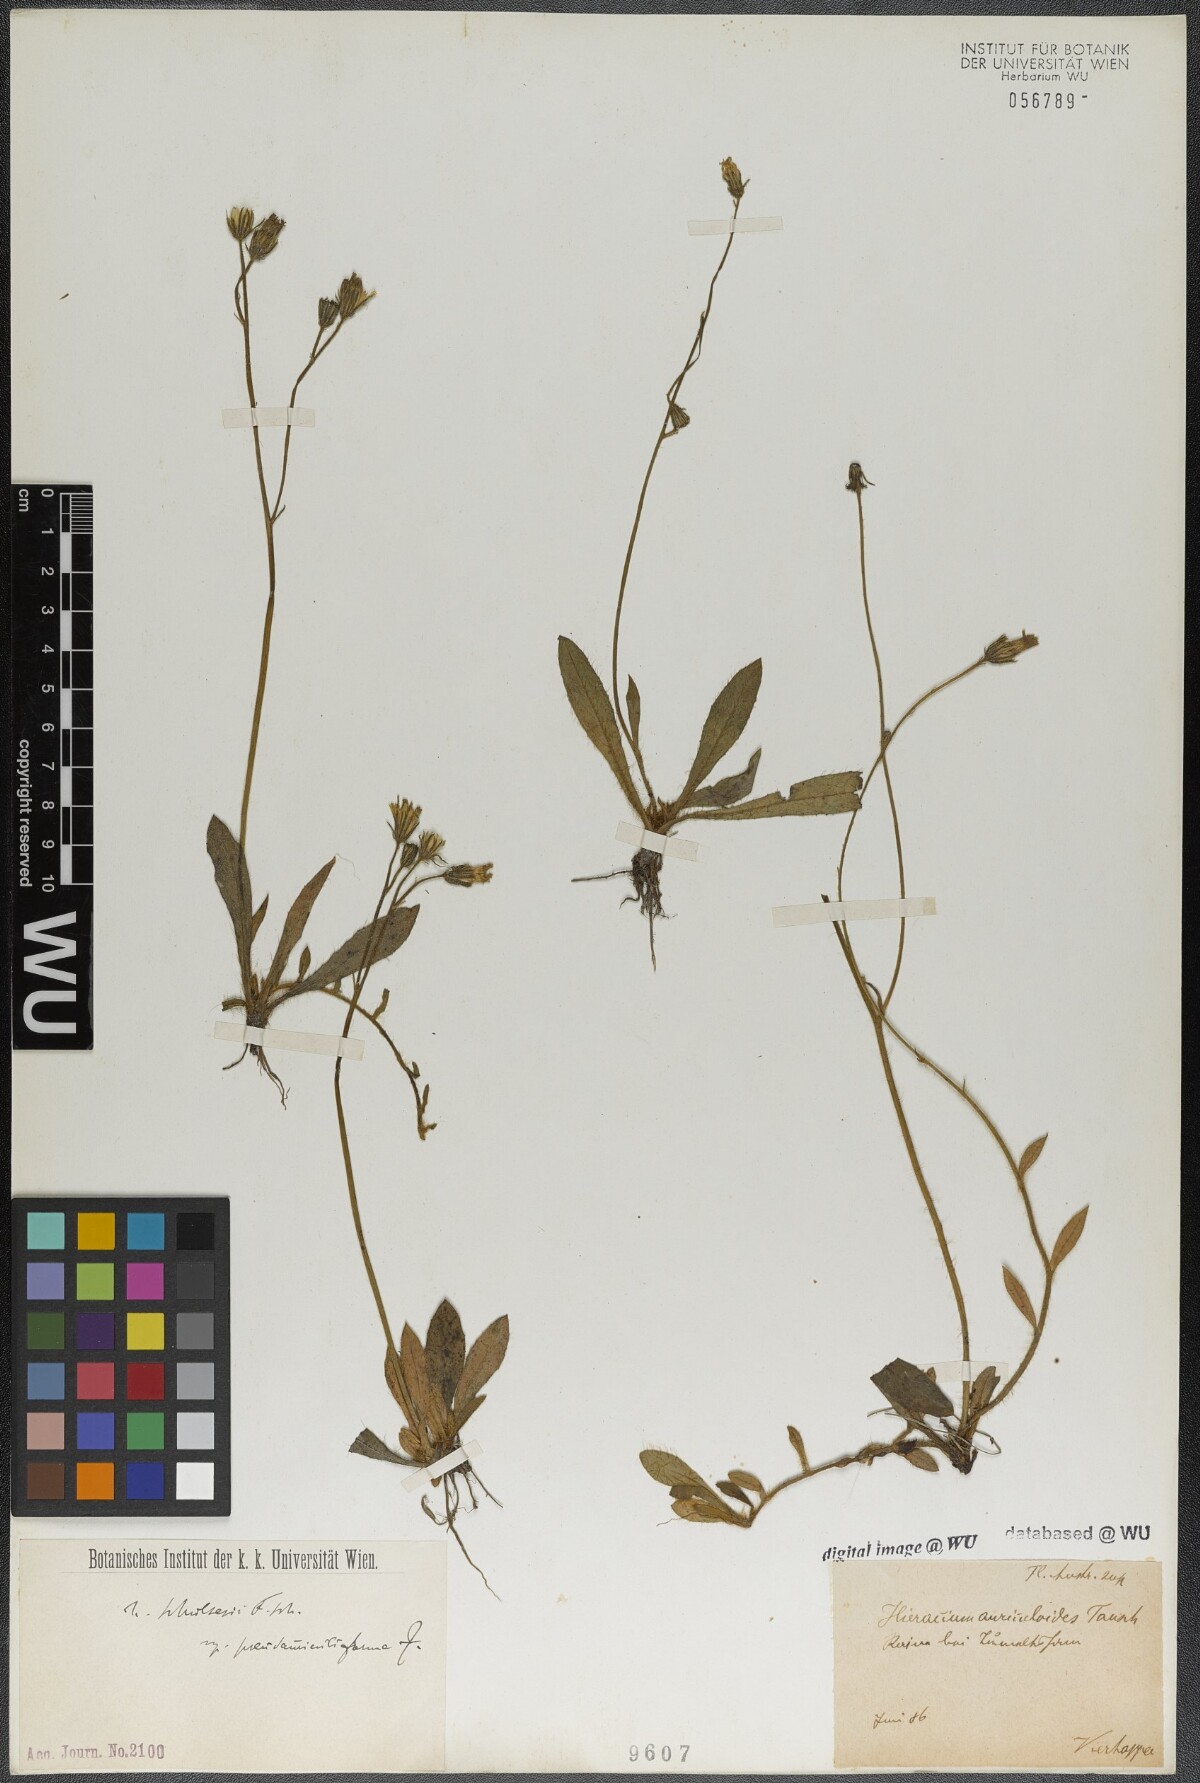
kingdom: Plantae
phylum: Tracheophyta
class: Magnoliopsida
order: Asterales
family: Asteraceae
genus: Pilosella
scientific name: Pilosella schultesii
